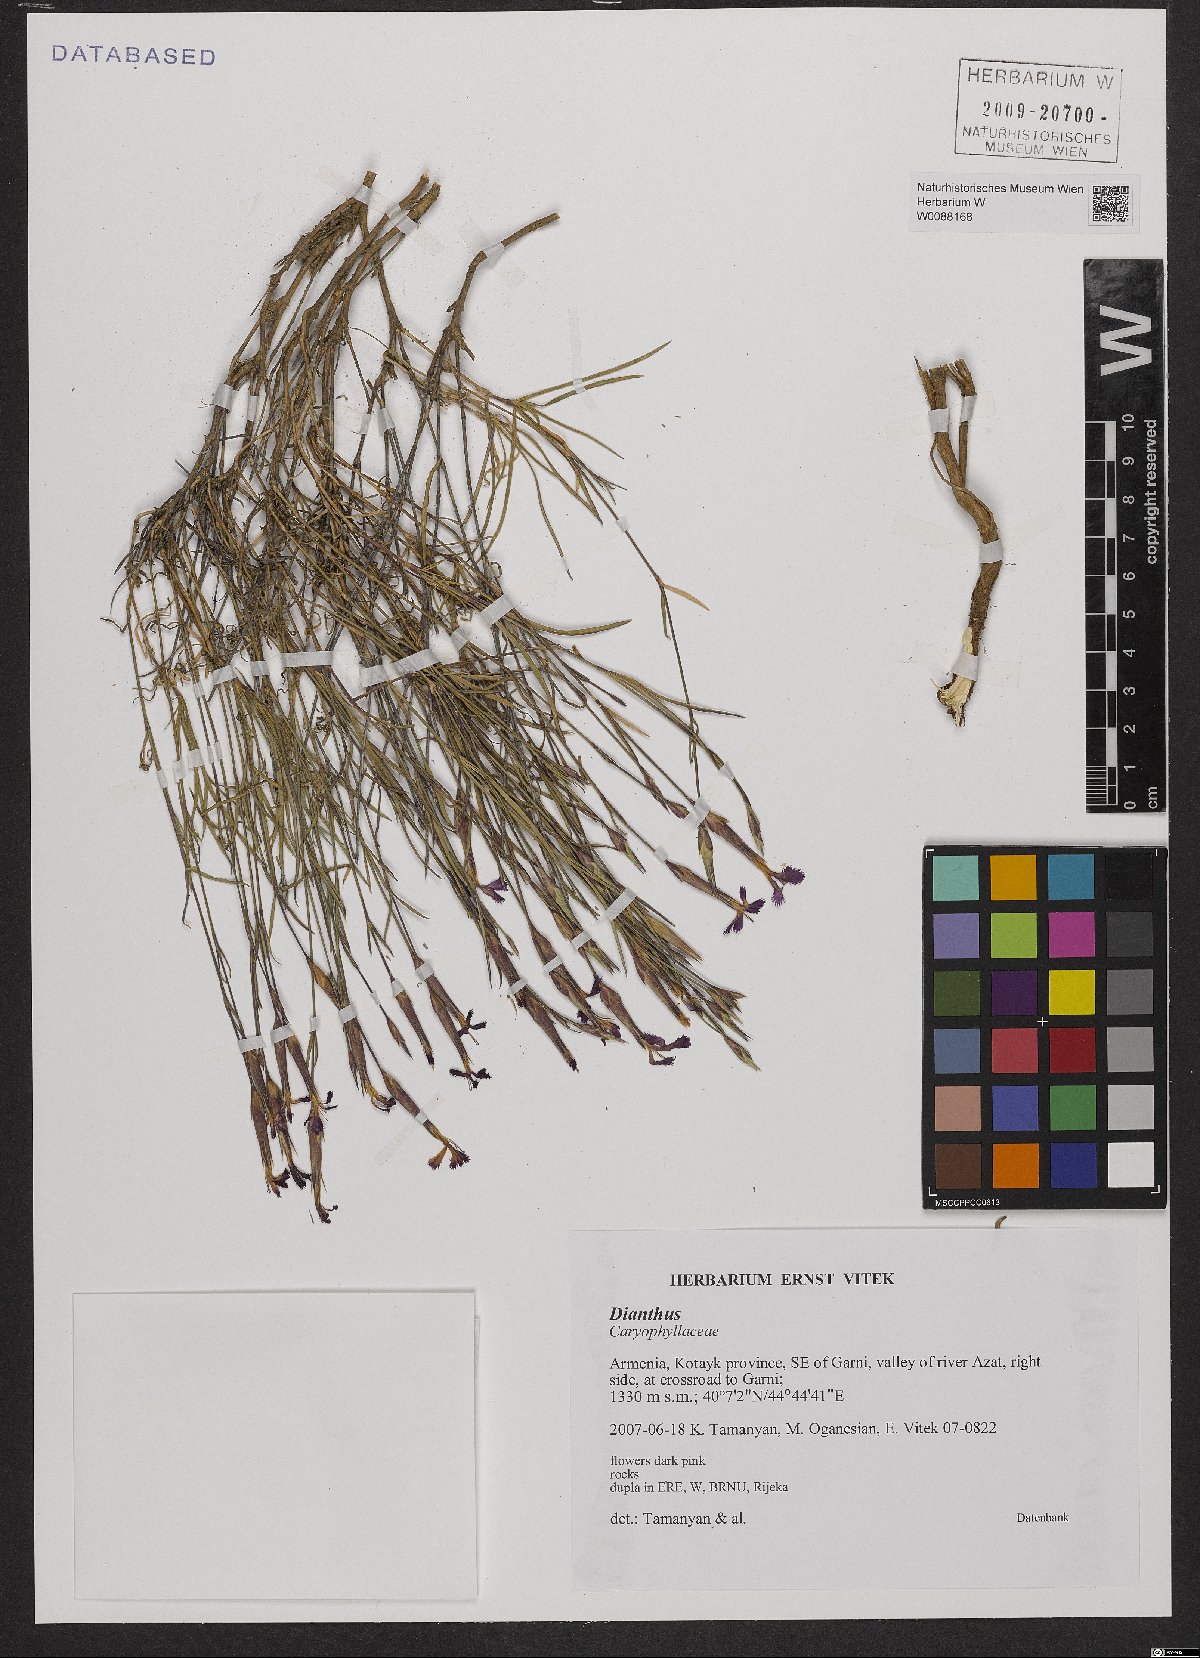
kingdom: Plantae
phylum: Tracheophyta
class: Magnoliopsida
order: Caryophyllales
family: Caryophyllaceae
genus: Dianthus
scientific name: Dianthus
